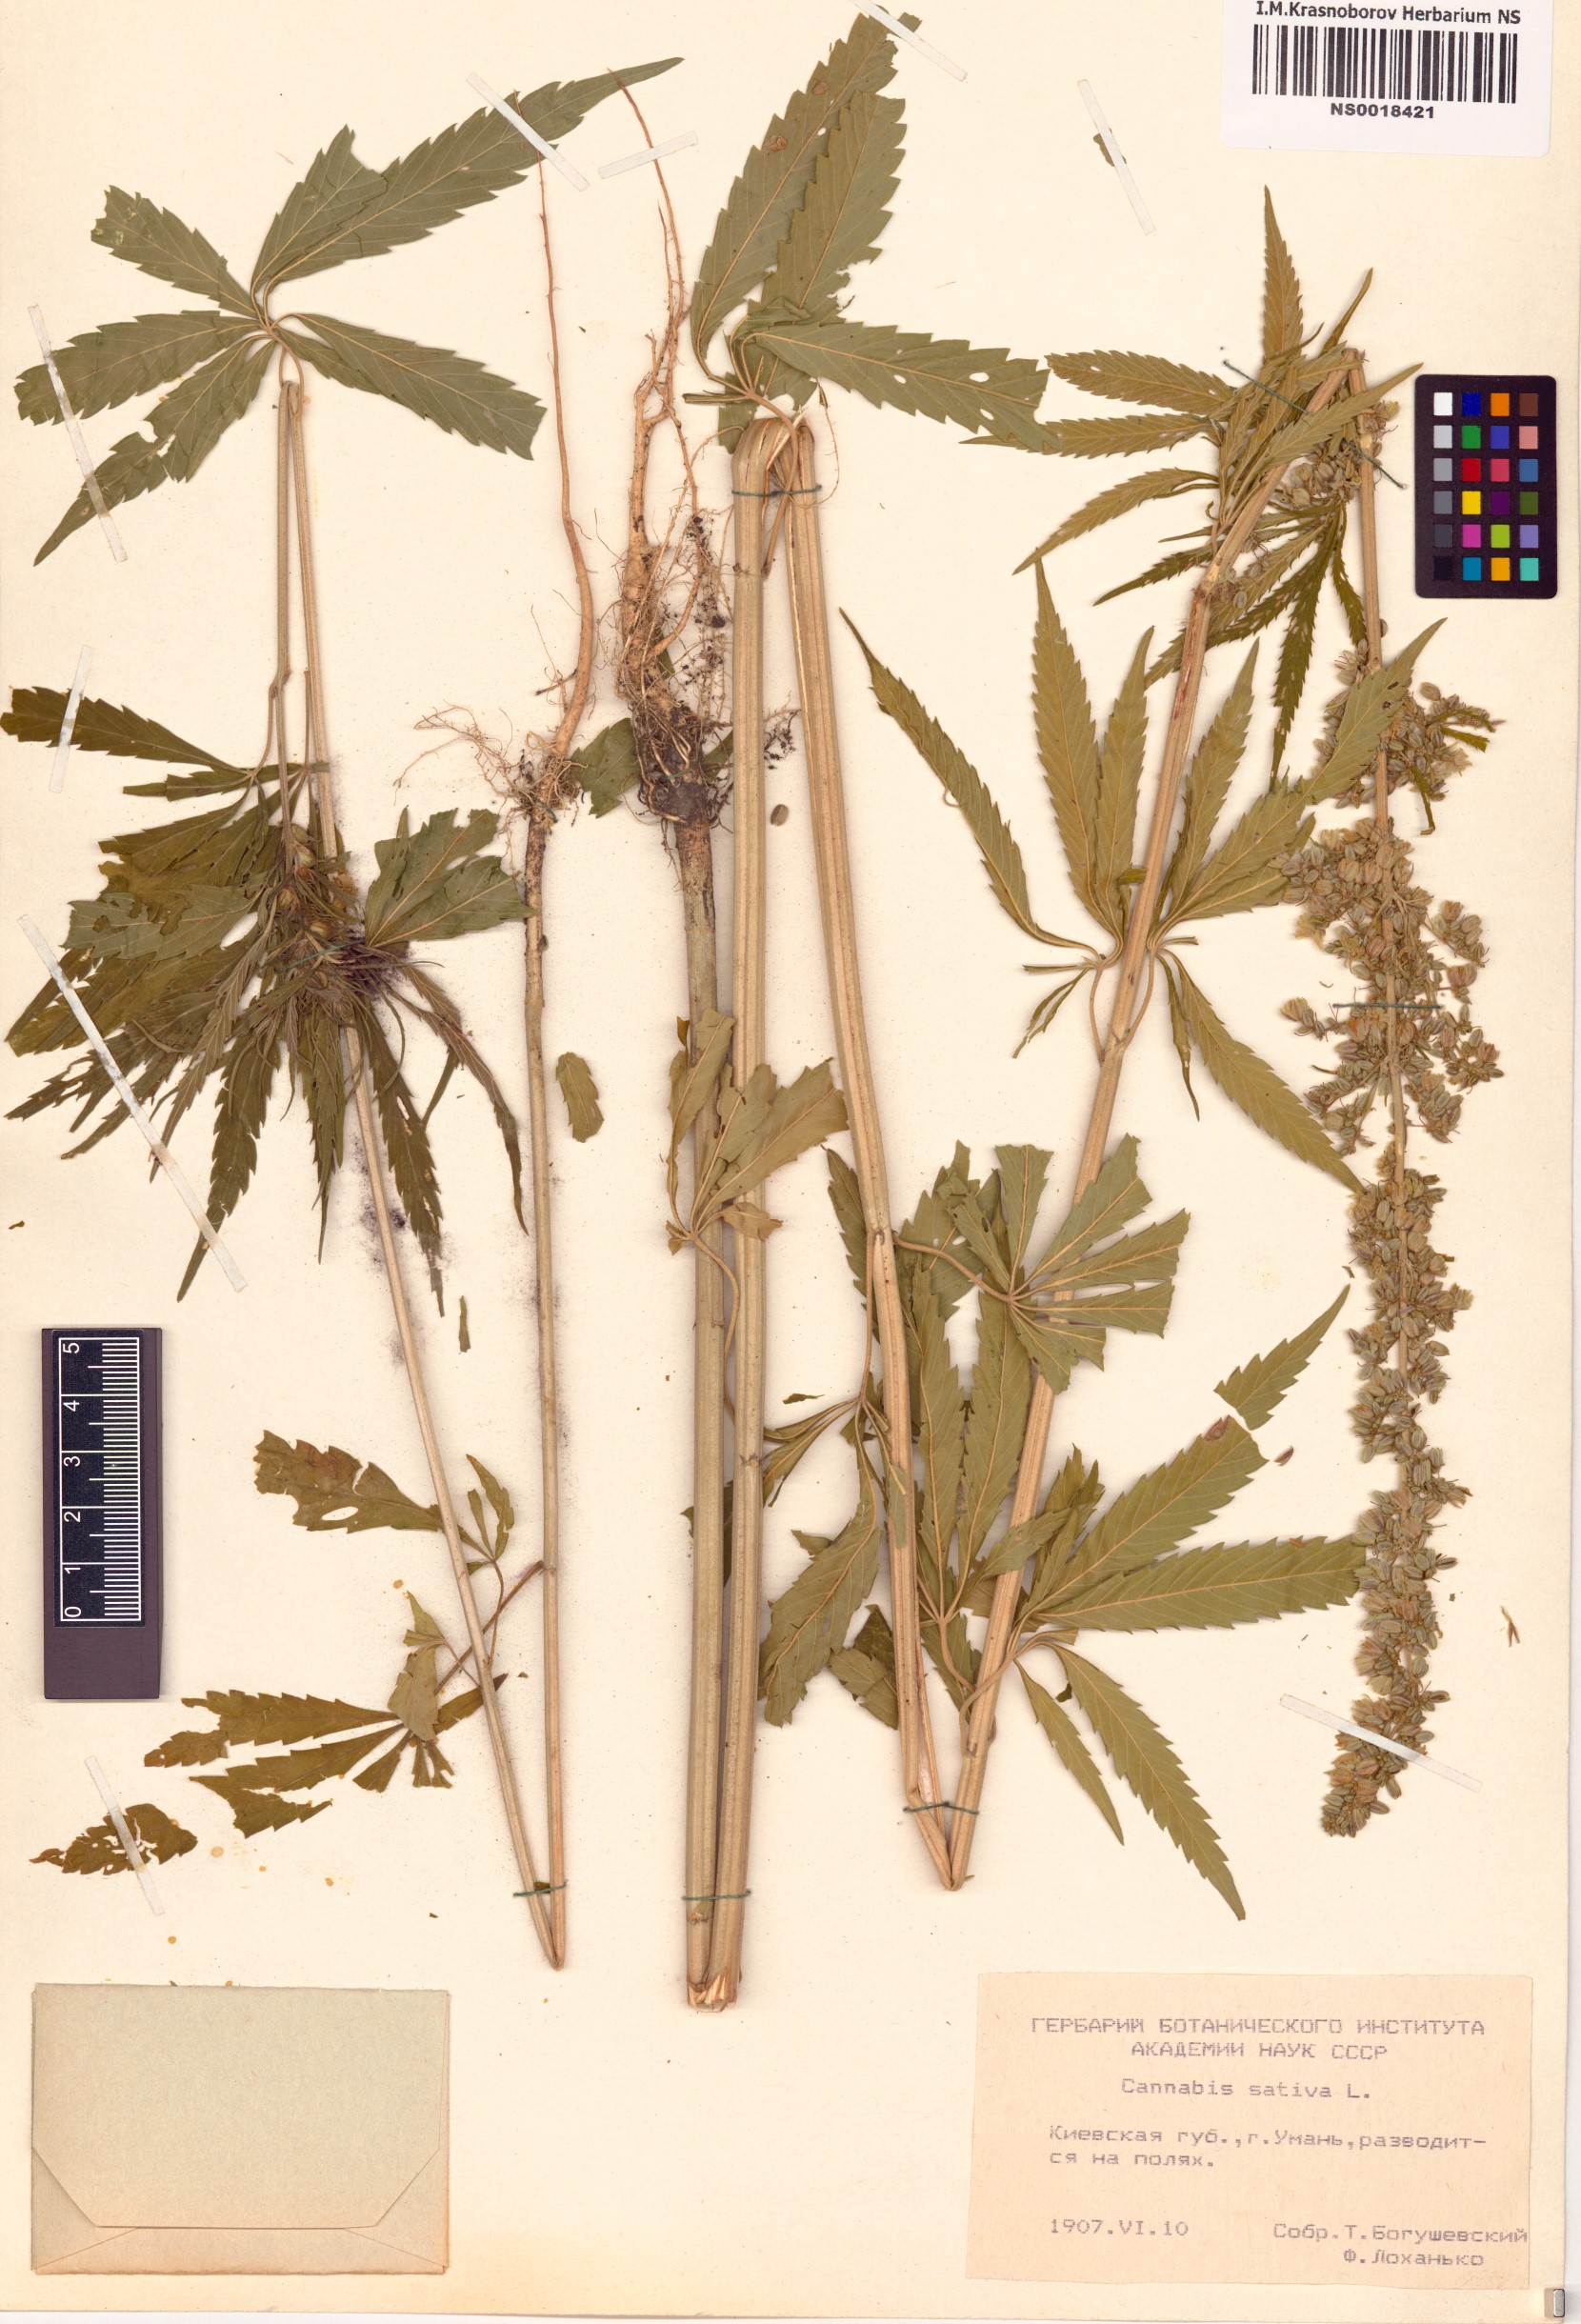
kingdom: Plantae
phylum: Tracheophyta
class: Magnoliopsida
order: Rosales
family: Cannabaceae
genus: Cannabis
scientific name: Cannabis sativa
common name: Hemp
